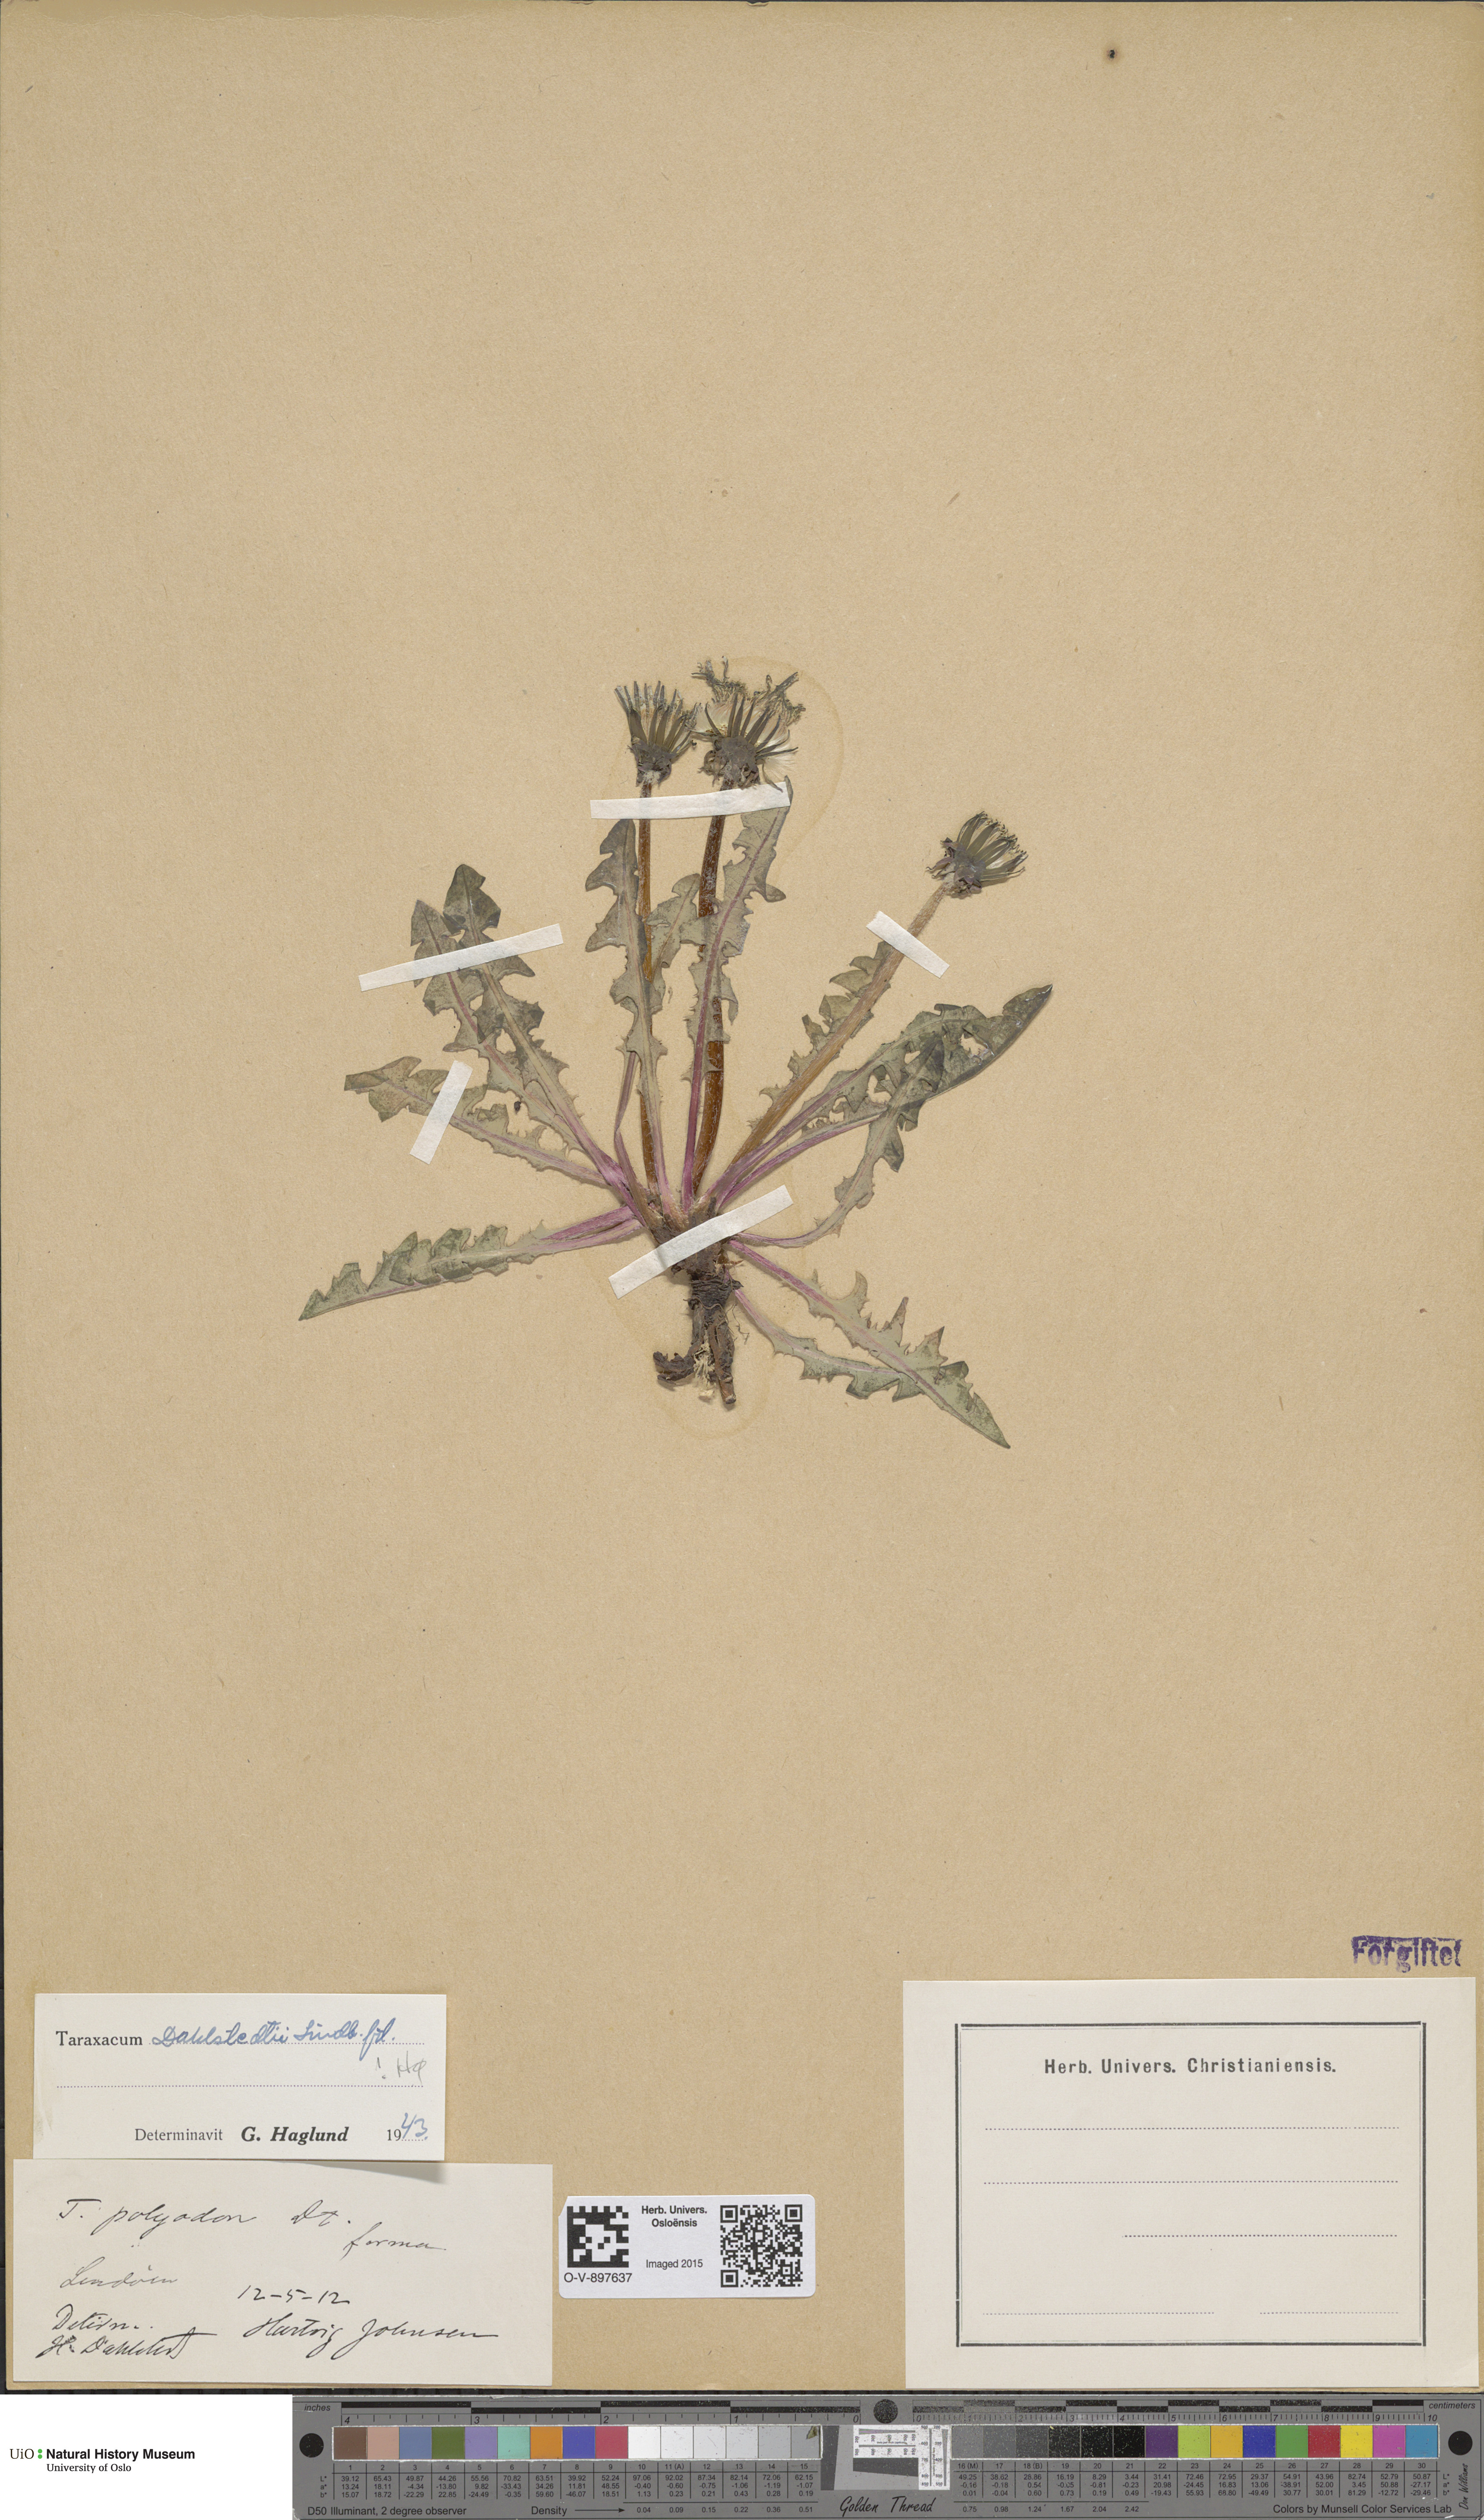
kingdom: Plantae
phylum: Tracheophyta
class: Magnoliopsida
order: Asterales
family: Asteraceae
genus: Taraxacum
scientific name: Taraxacum stenoglossum
